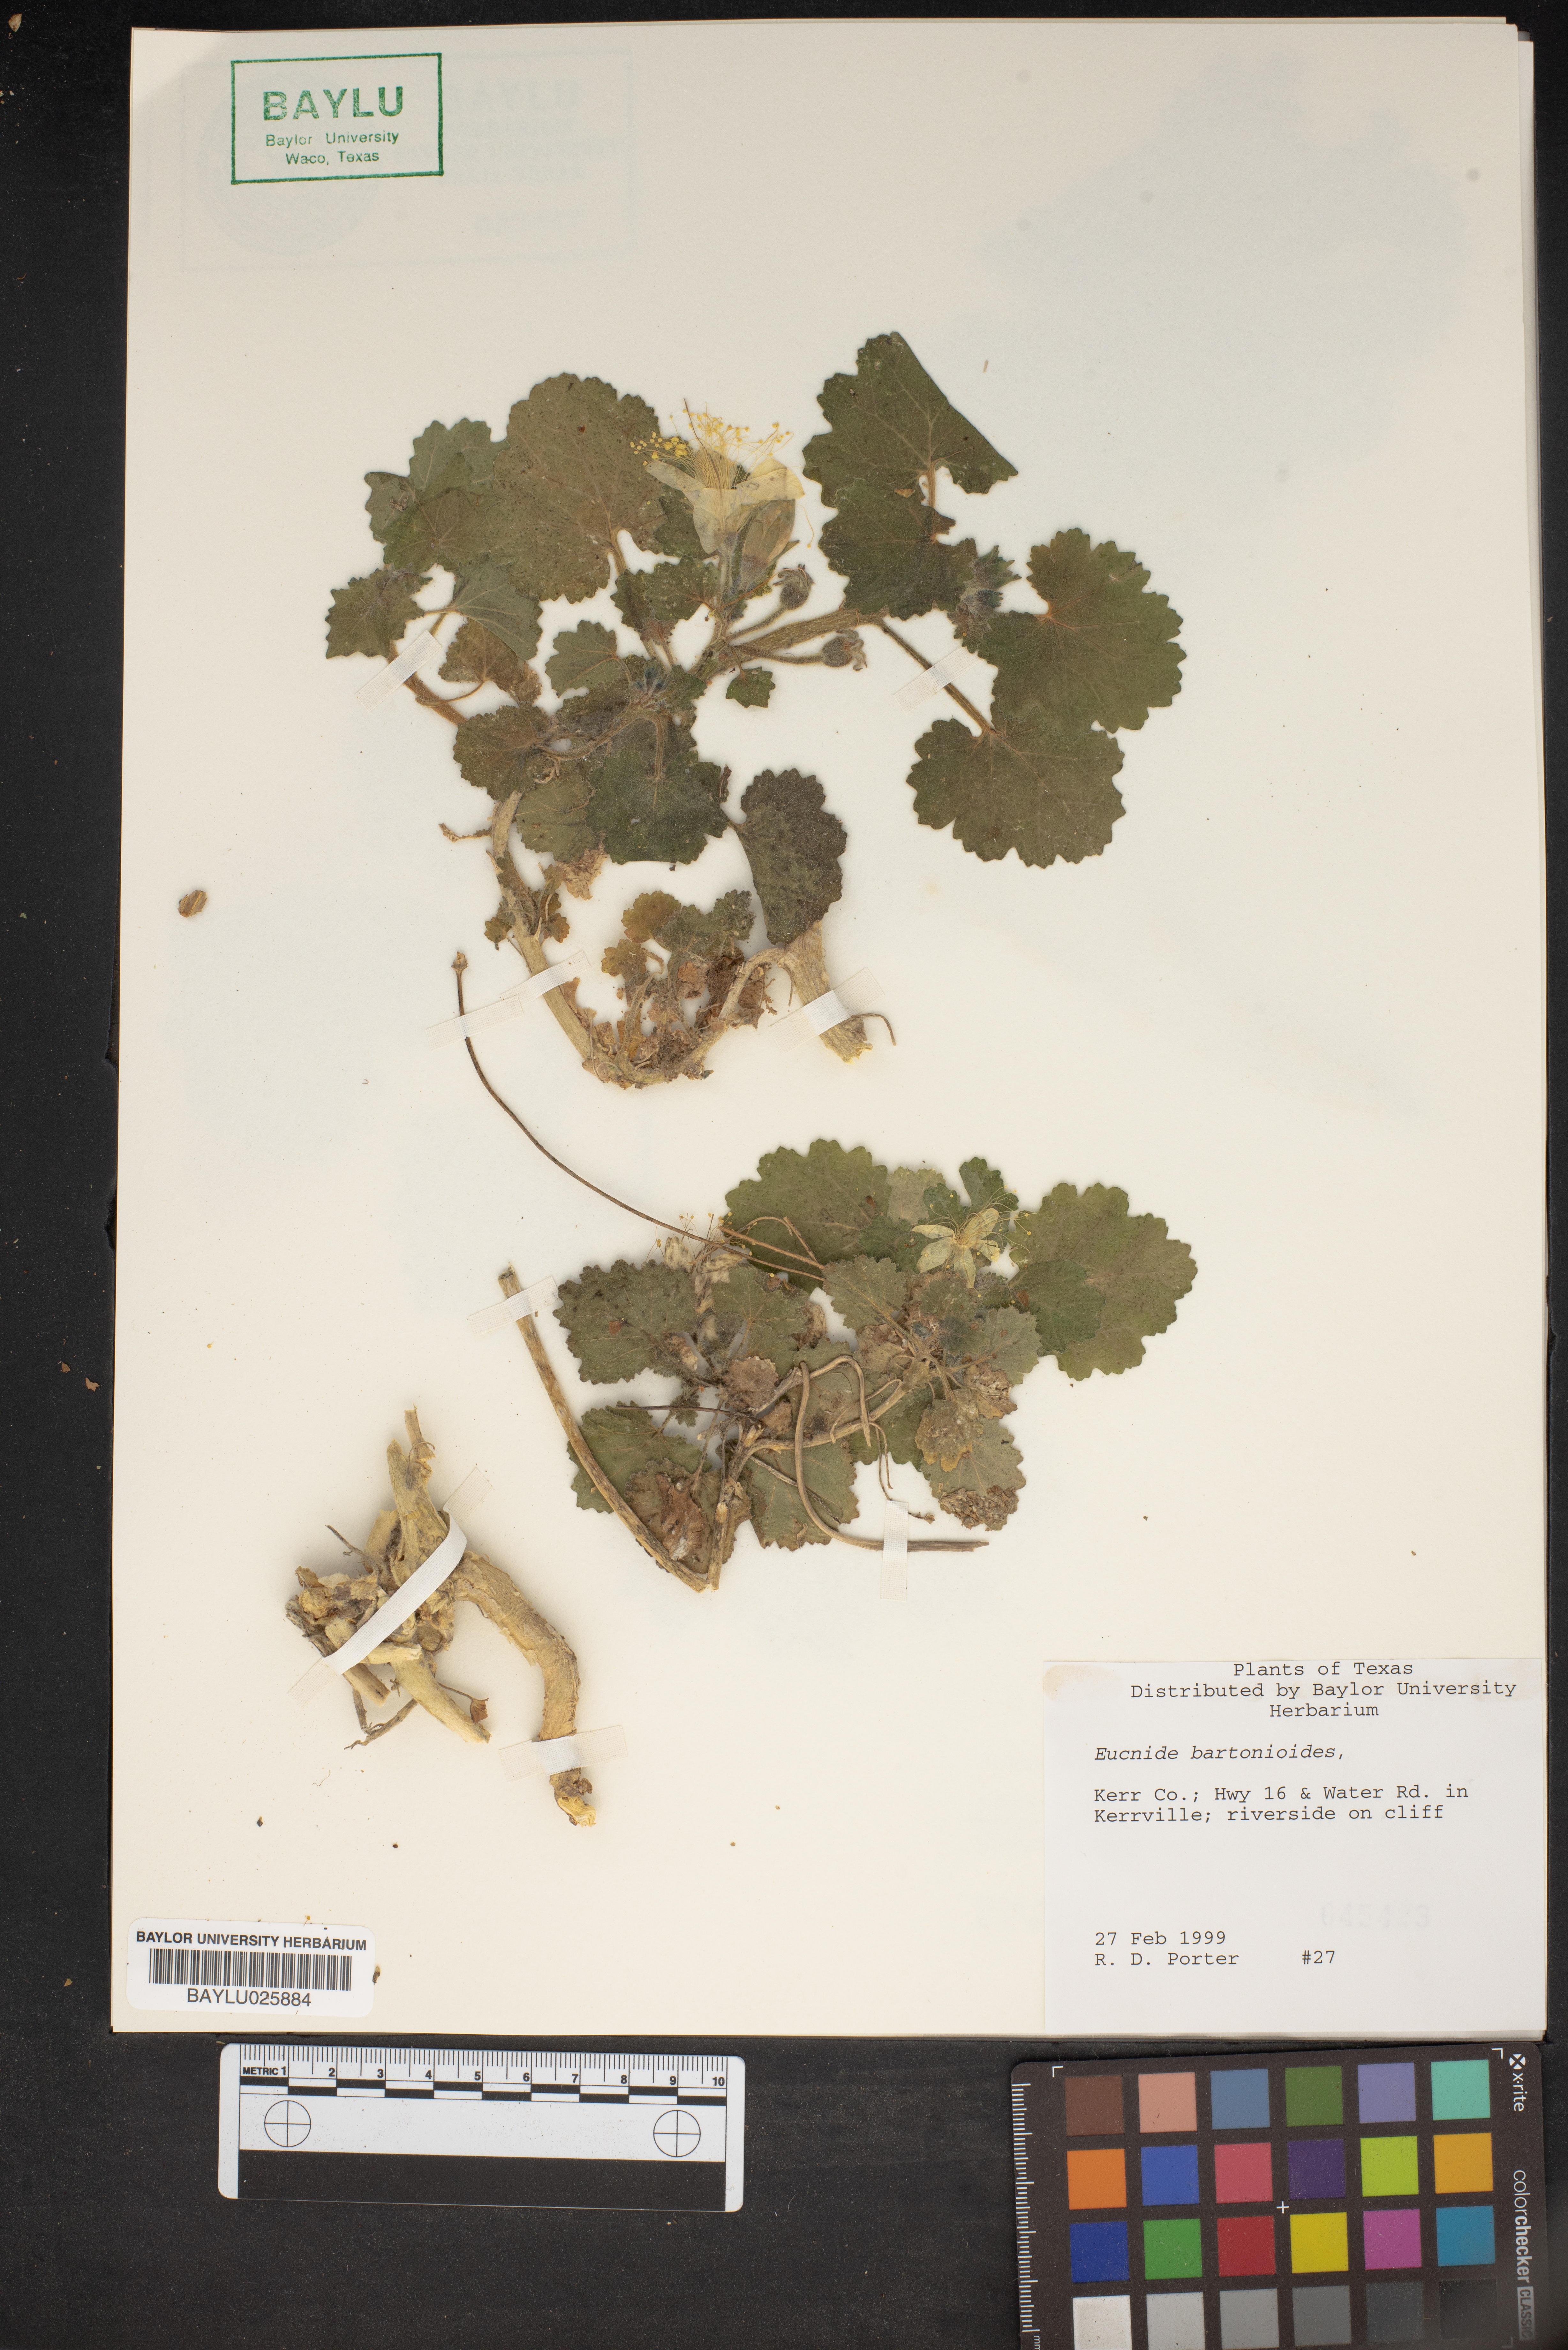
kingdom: Plantae
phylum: Tracheophyta
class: Magnoliopsida
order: Cornales
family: Loasaceae
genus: Eucnide
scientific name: Eucnide bartonioides
